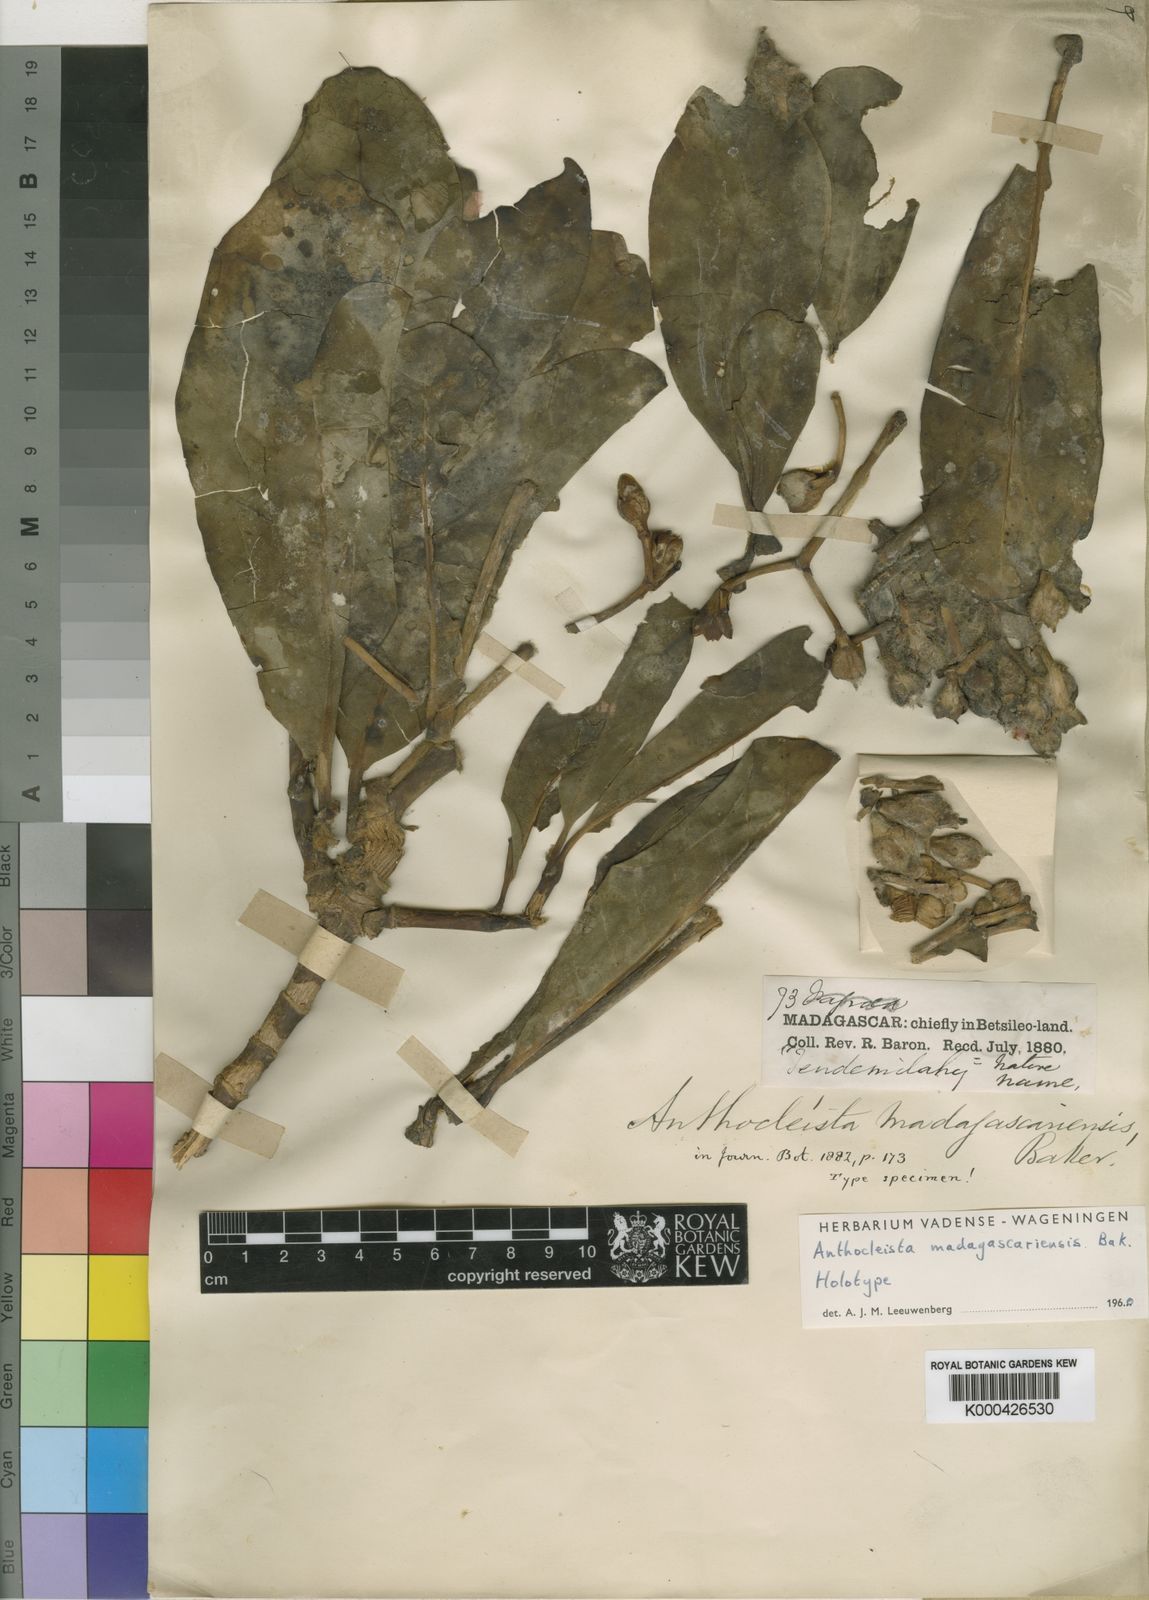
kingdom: Plantae
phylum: Tracheophyta
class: Magnoliopsida
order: Gentianales
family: Gentianaceae
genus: Anthocleista
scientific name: Anthocleista madagascariensis
